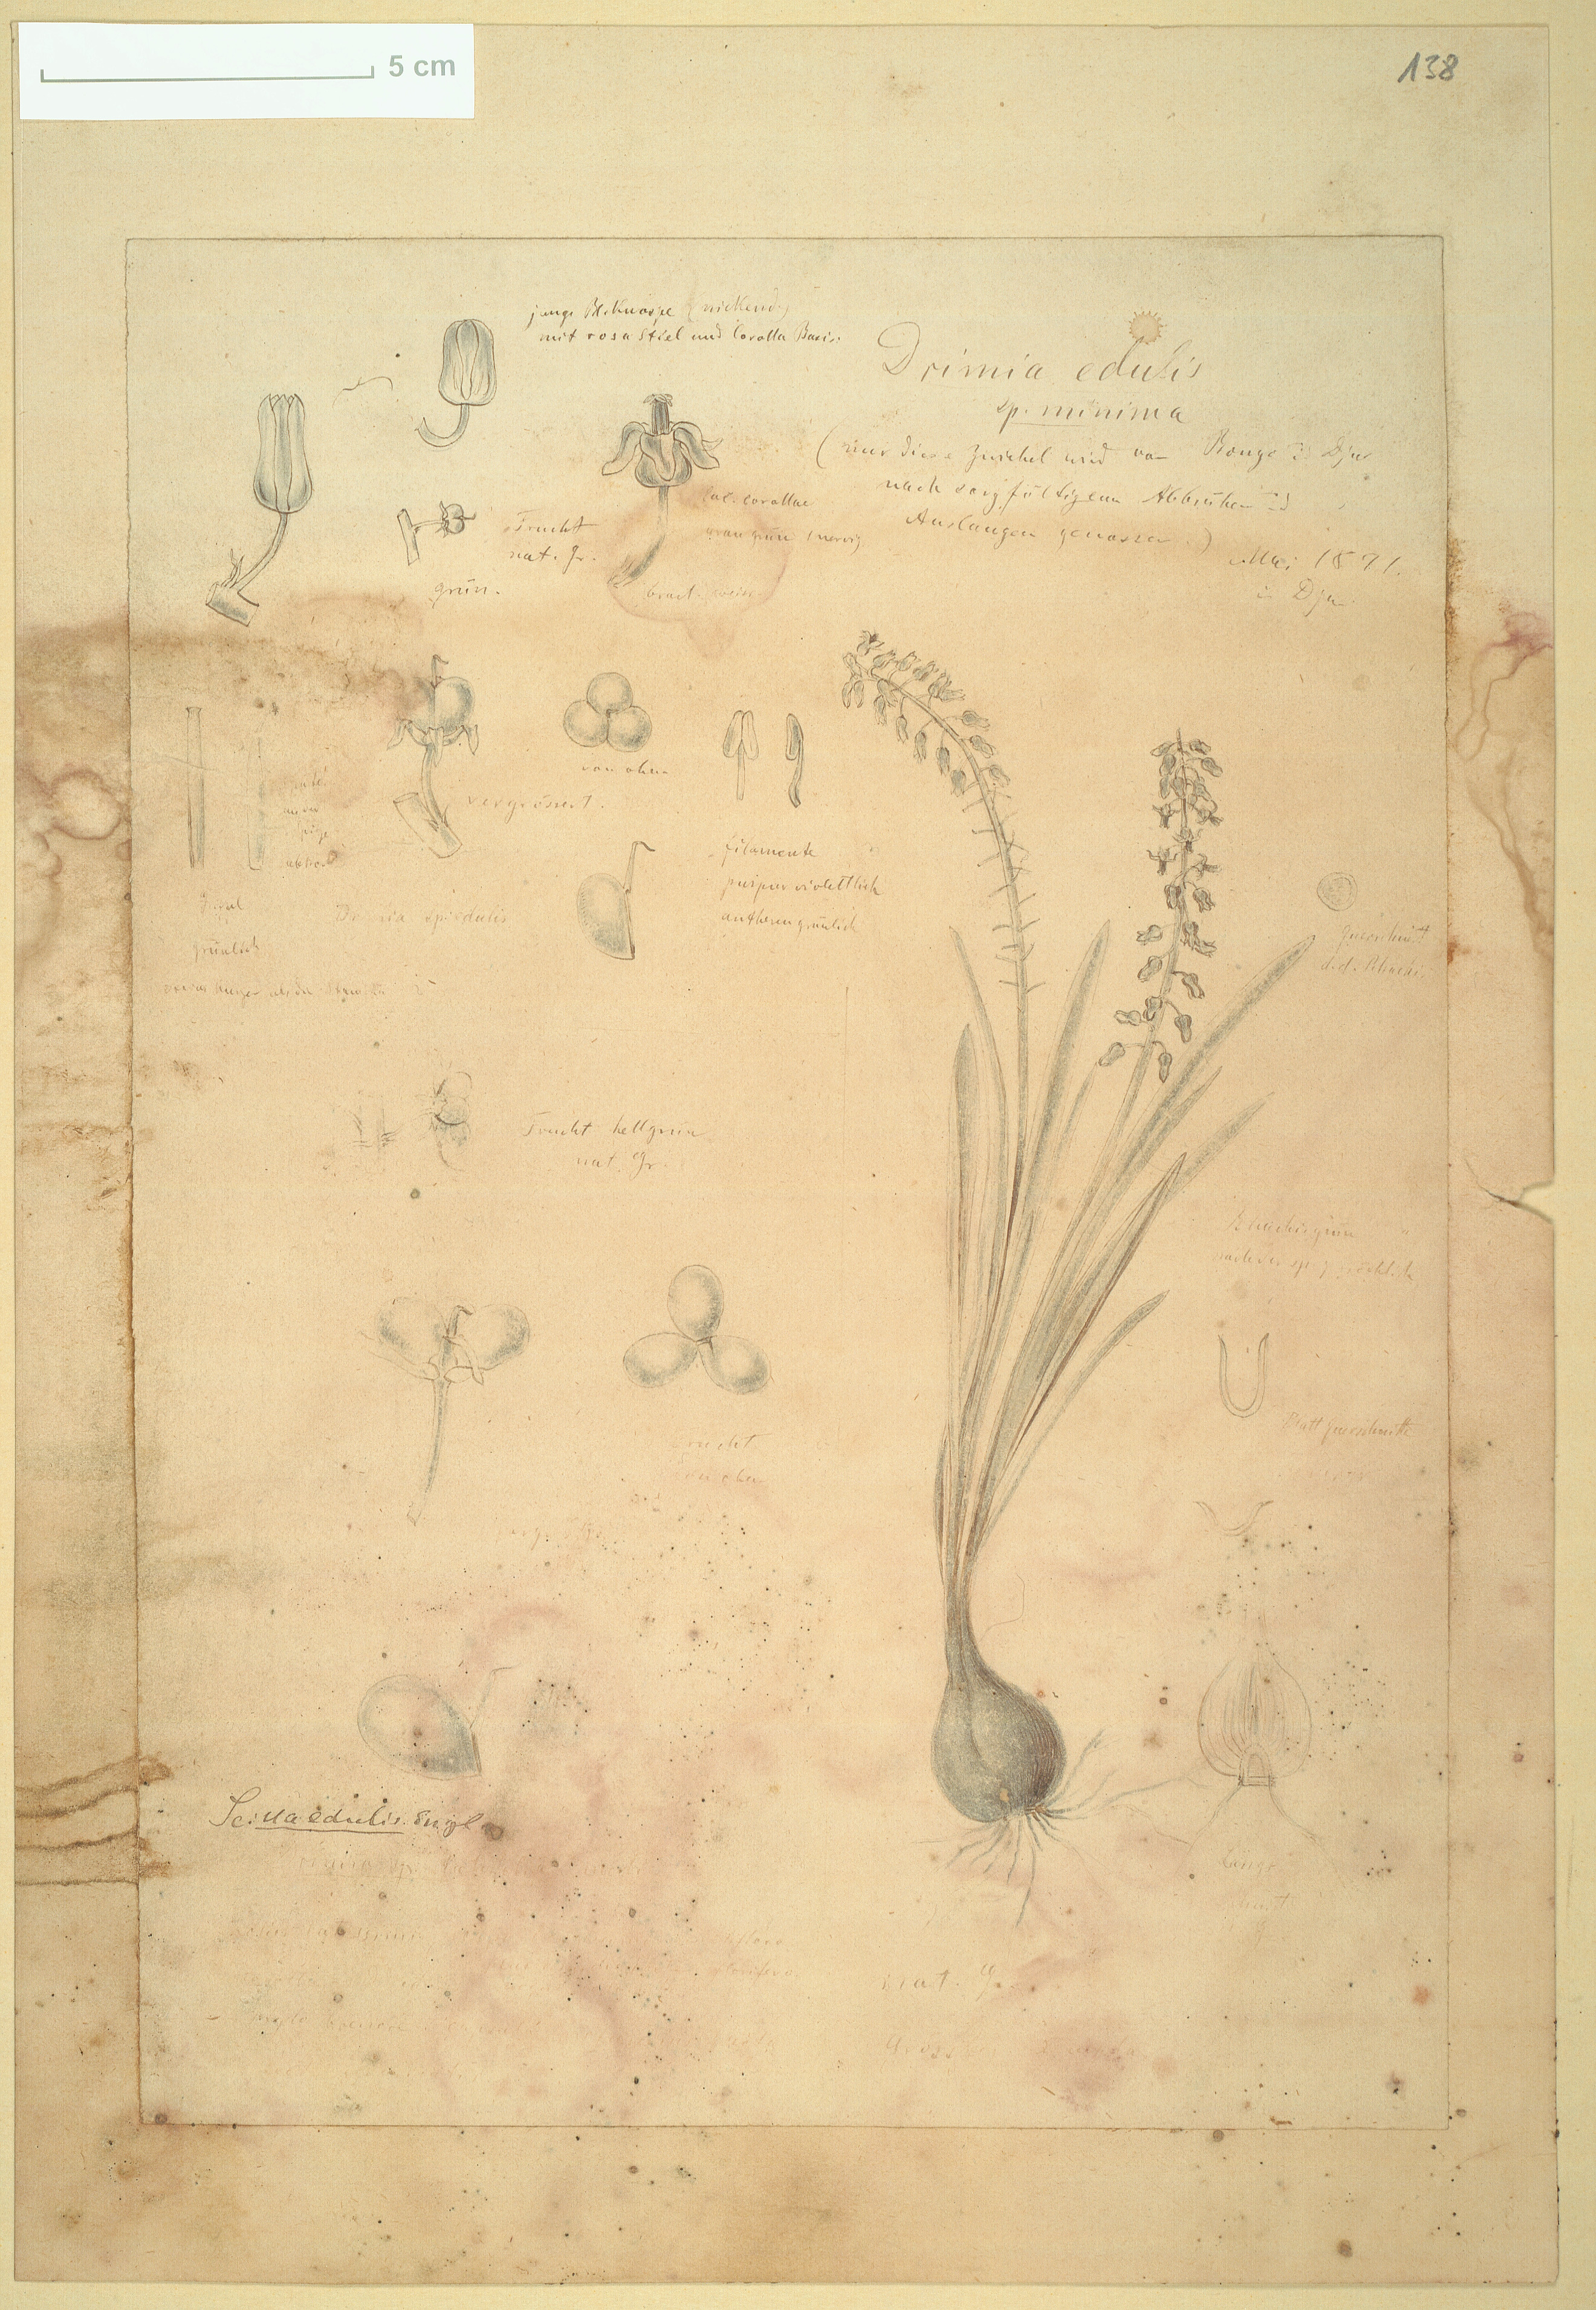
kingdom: Plantae
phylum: Tracheophyta
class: Liliopsida
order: Asparagales
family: Asparagaceae
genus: Ledebouria
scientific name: Ledebouria edulis
